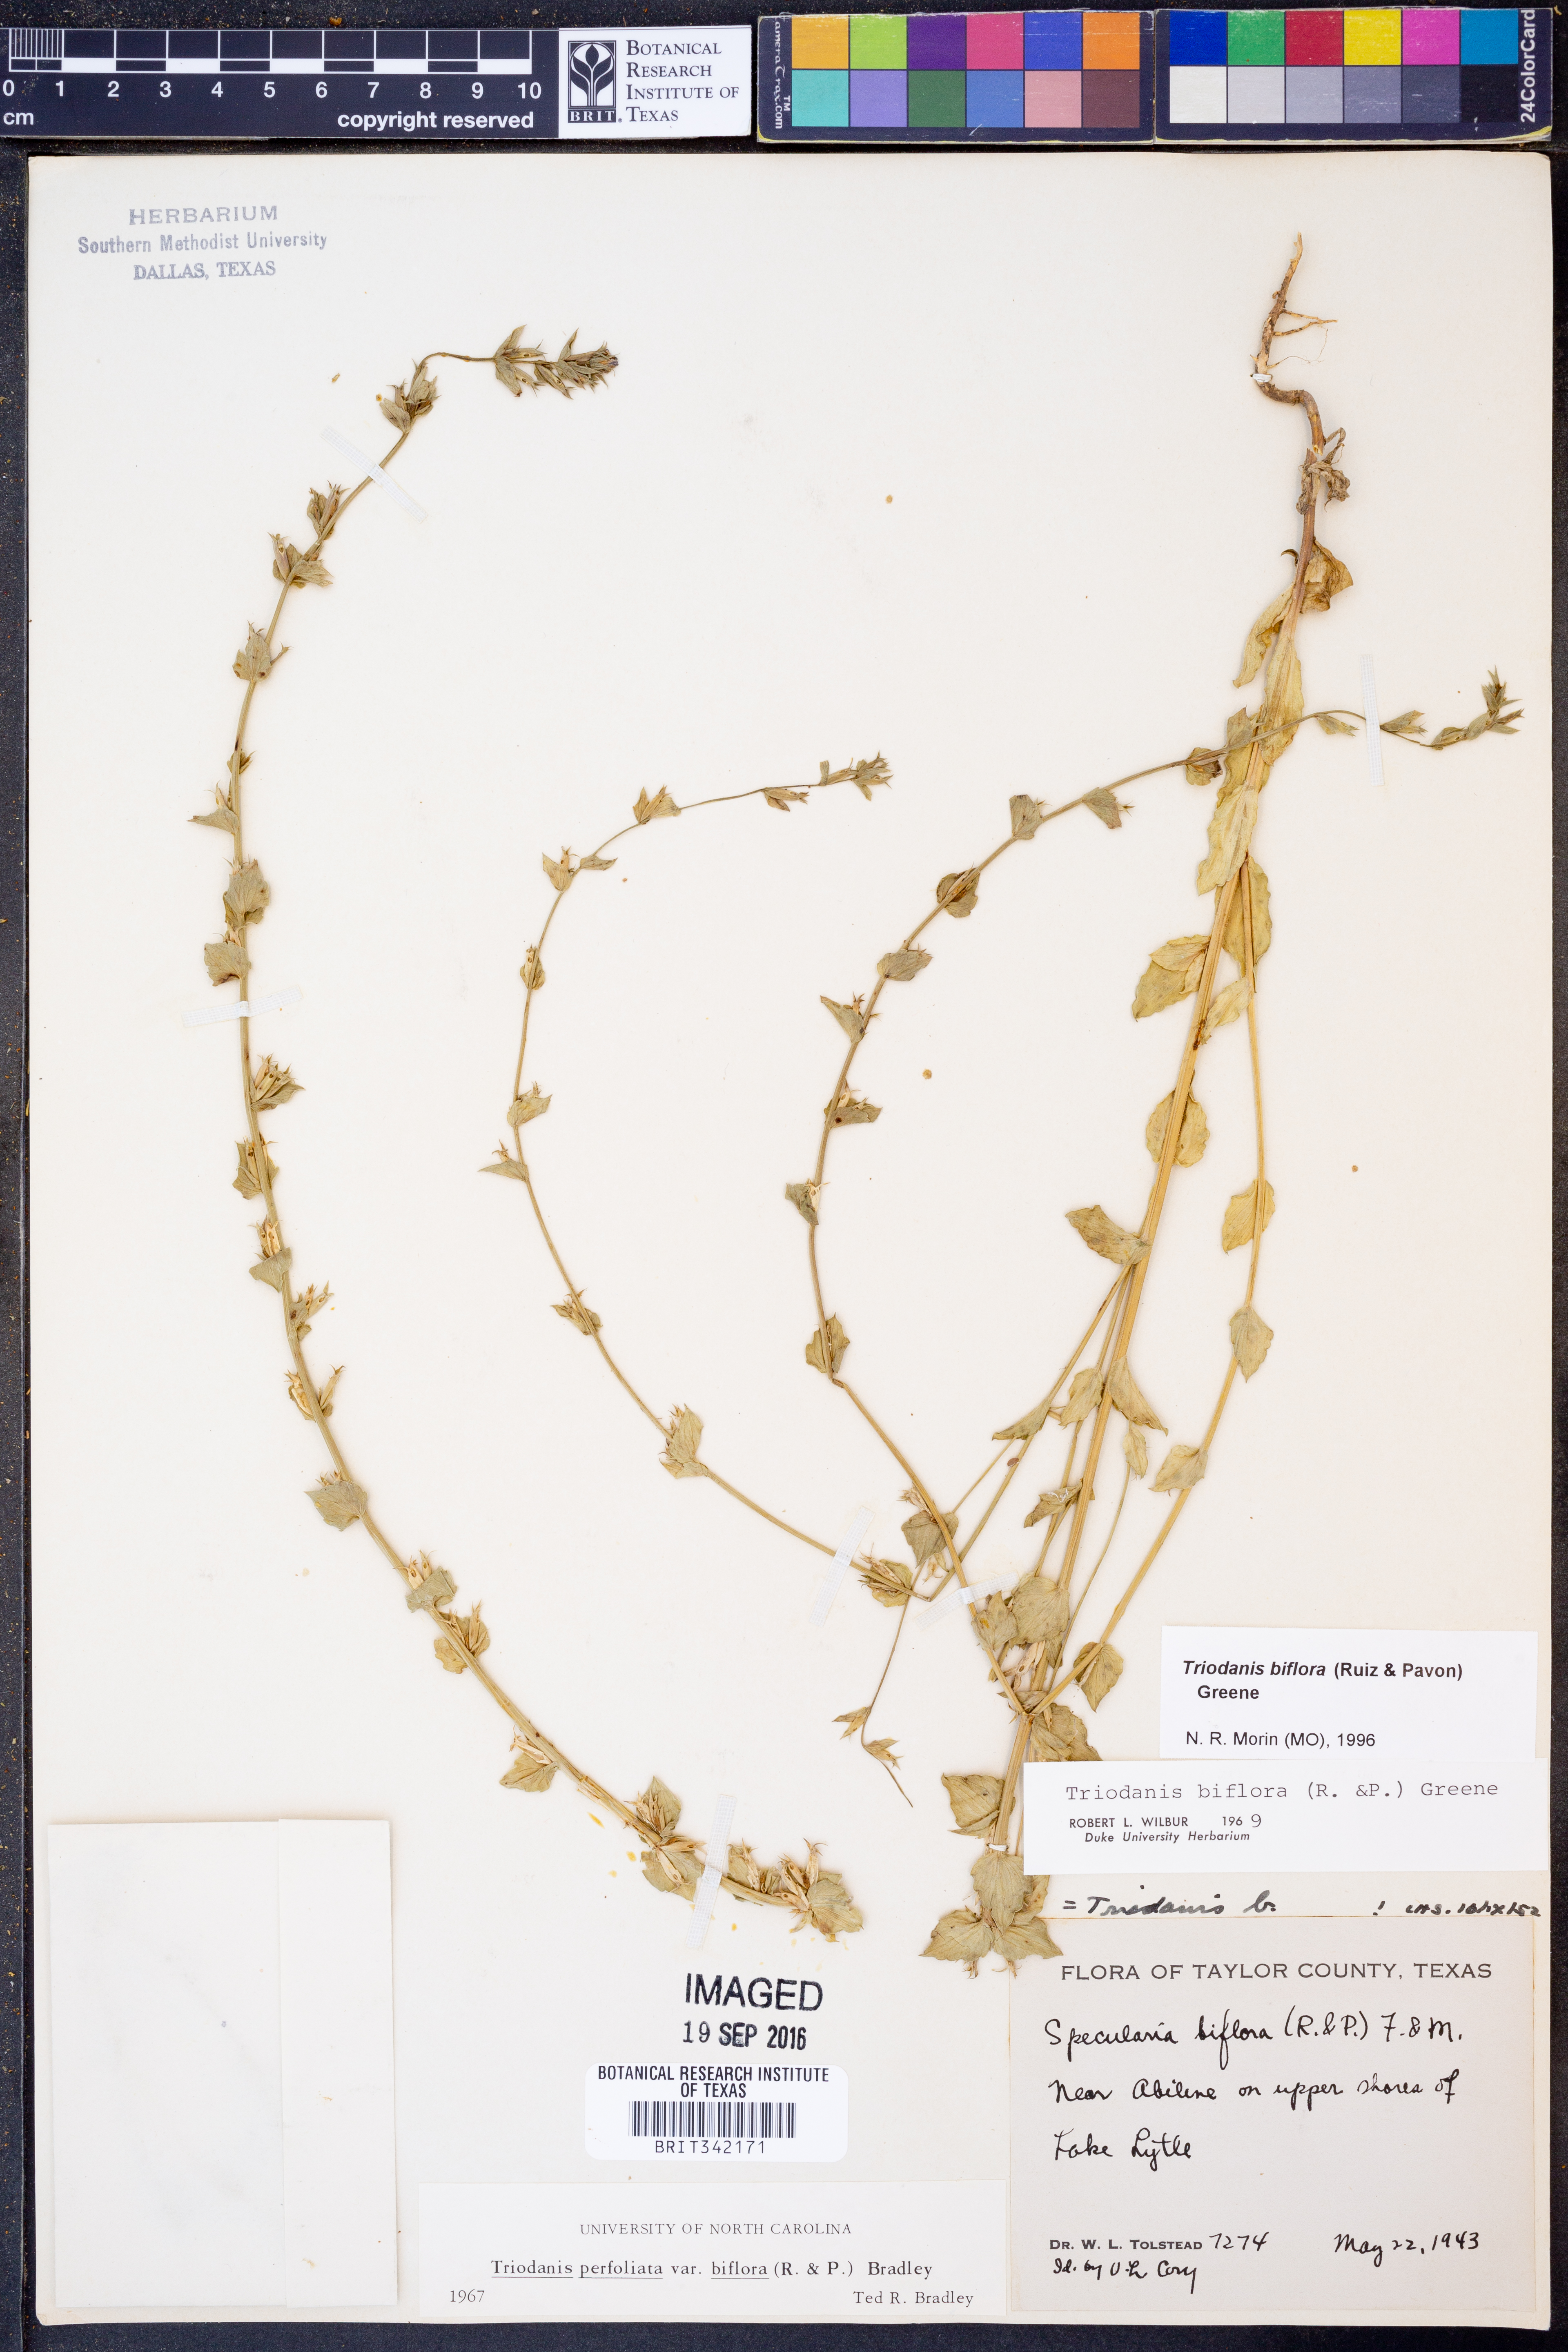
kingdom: Plantae
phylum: Tracheophyta
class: Magnoliopsida
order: Asterales
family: Campanulaceae
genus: Triodanis
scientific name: Triodanis perfoliata
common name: Clasping venus' looking-glass
